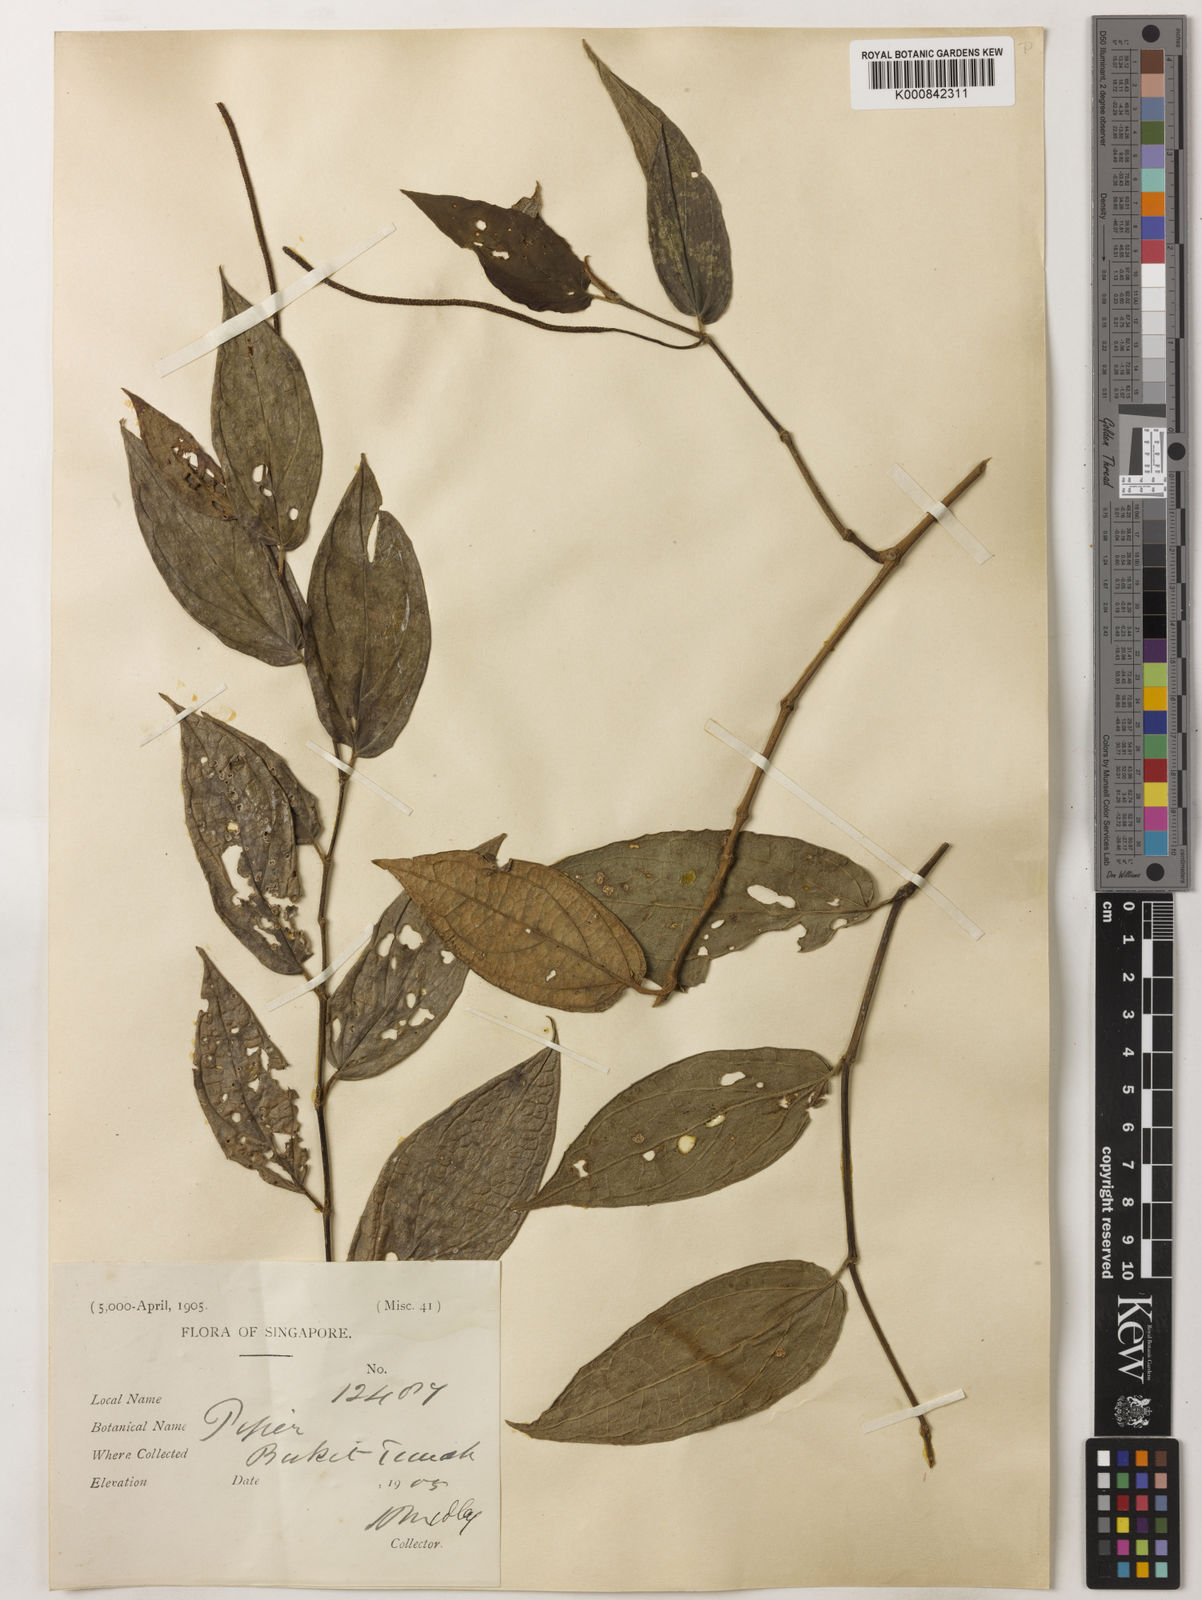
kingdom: Plantae
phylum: Tracheophyta
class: Magnoliopsida
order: Piperales
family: Piperaceae
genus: Piper
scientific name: Piper frustratum
